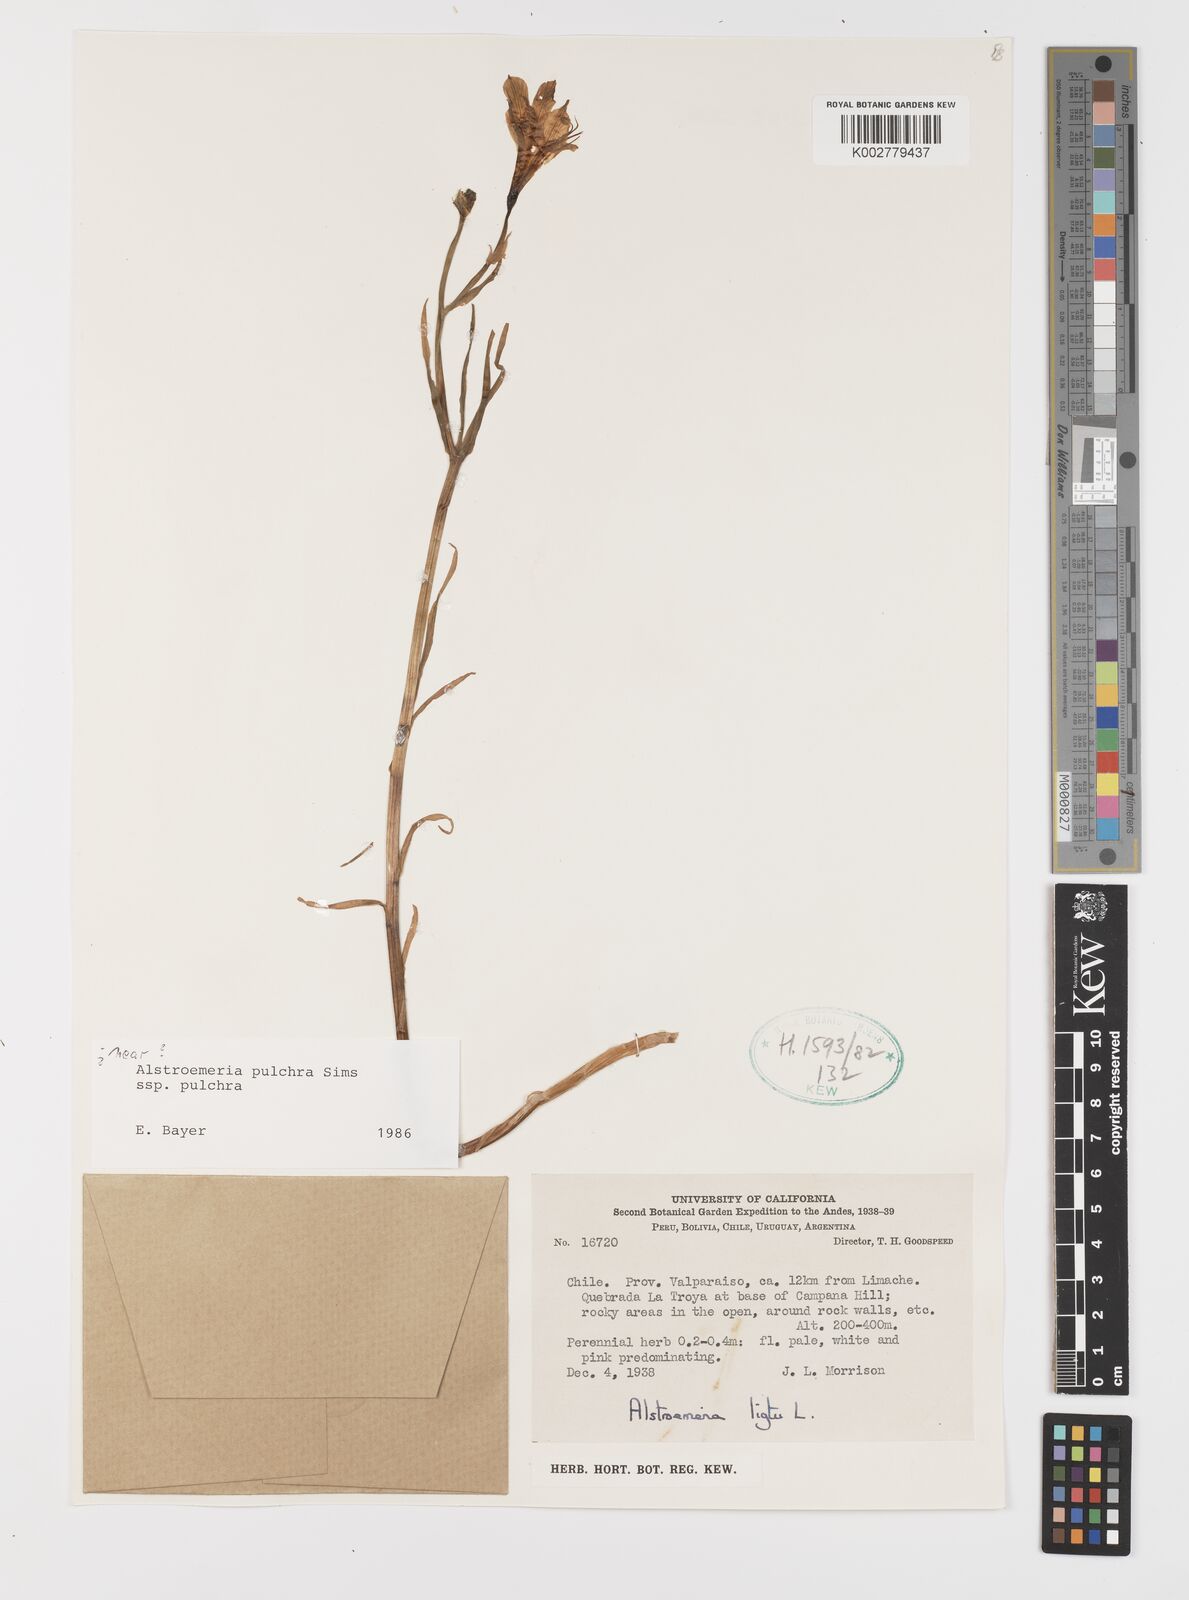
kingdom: Plantae
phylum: Tracheophyta
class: Liliopsida
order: Liliales
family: Alstroemeriaceae
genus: Alstroemeria
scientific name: Alstroemeria pulchra
